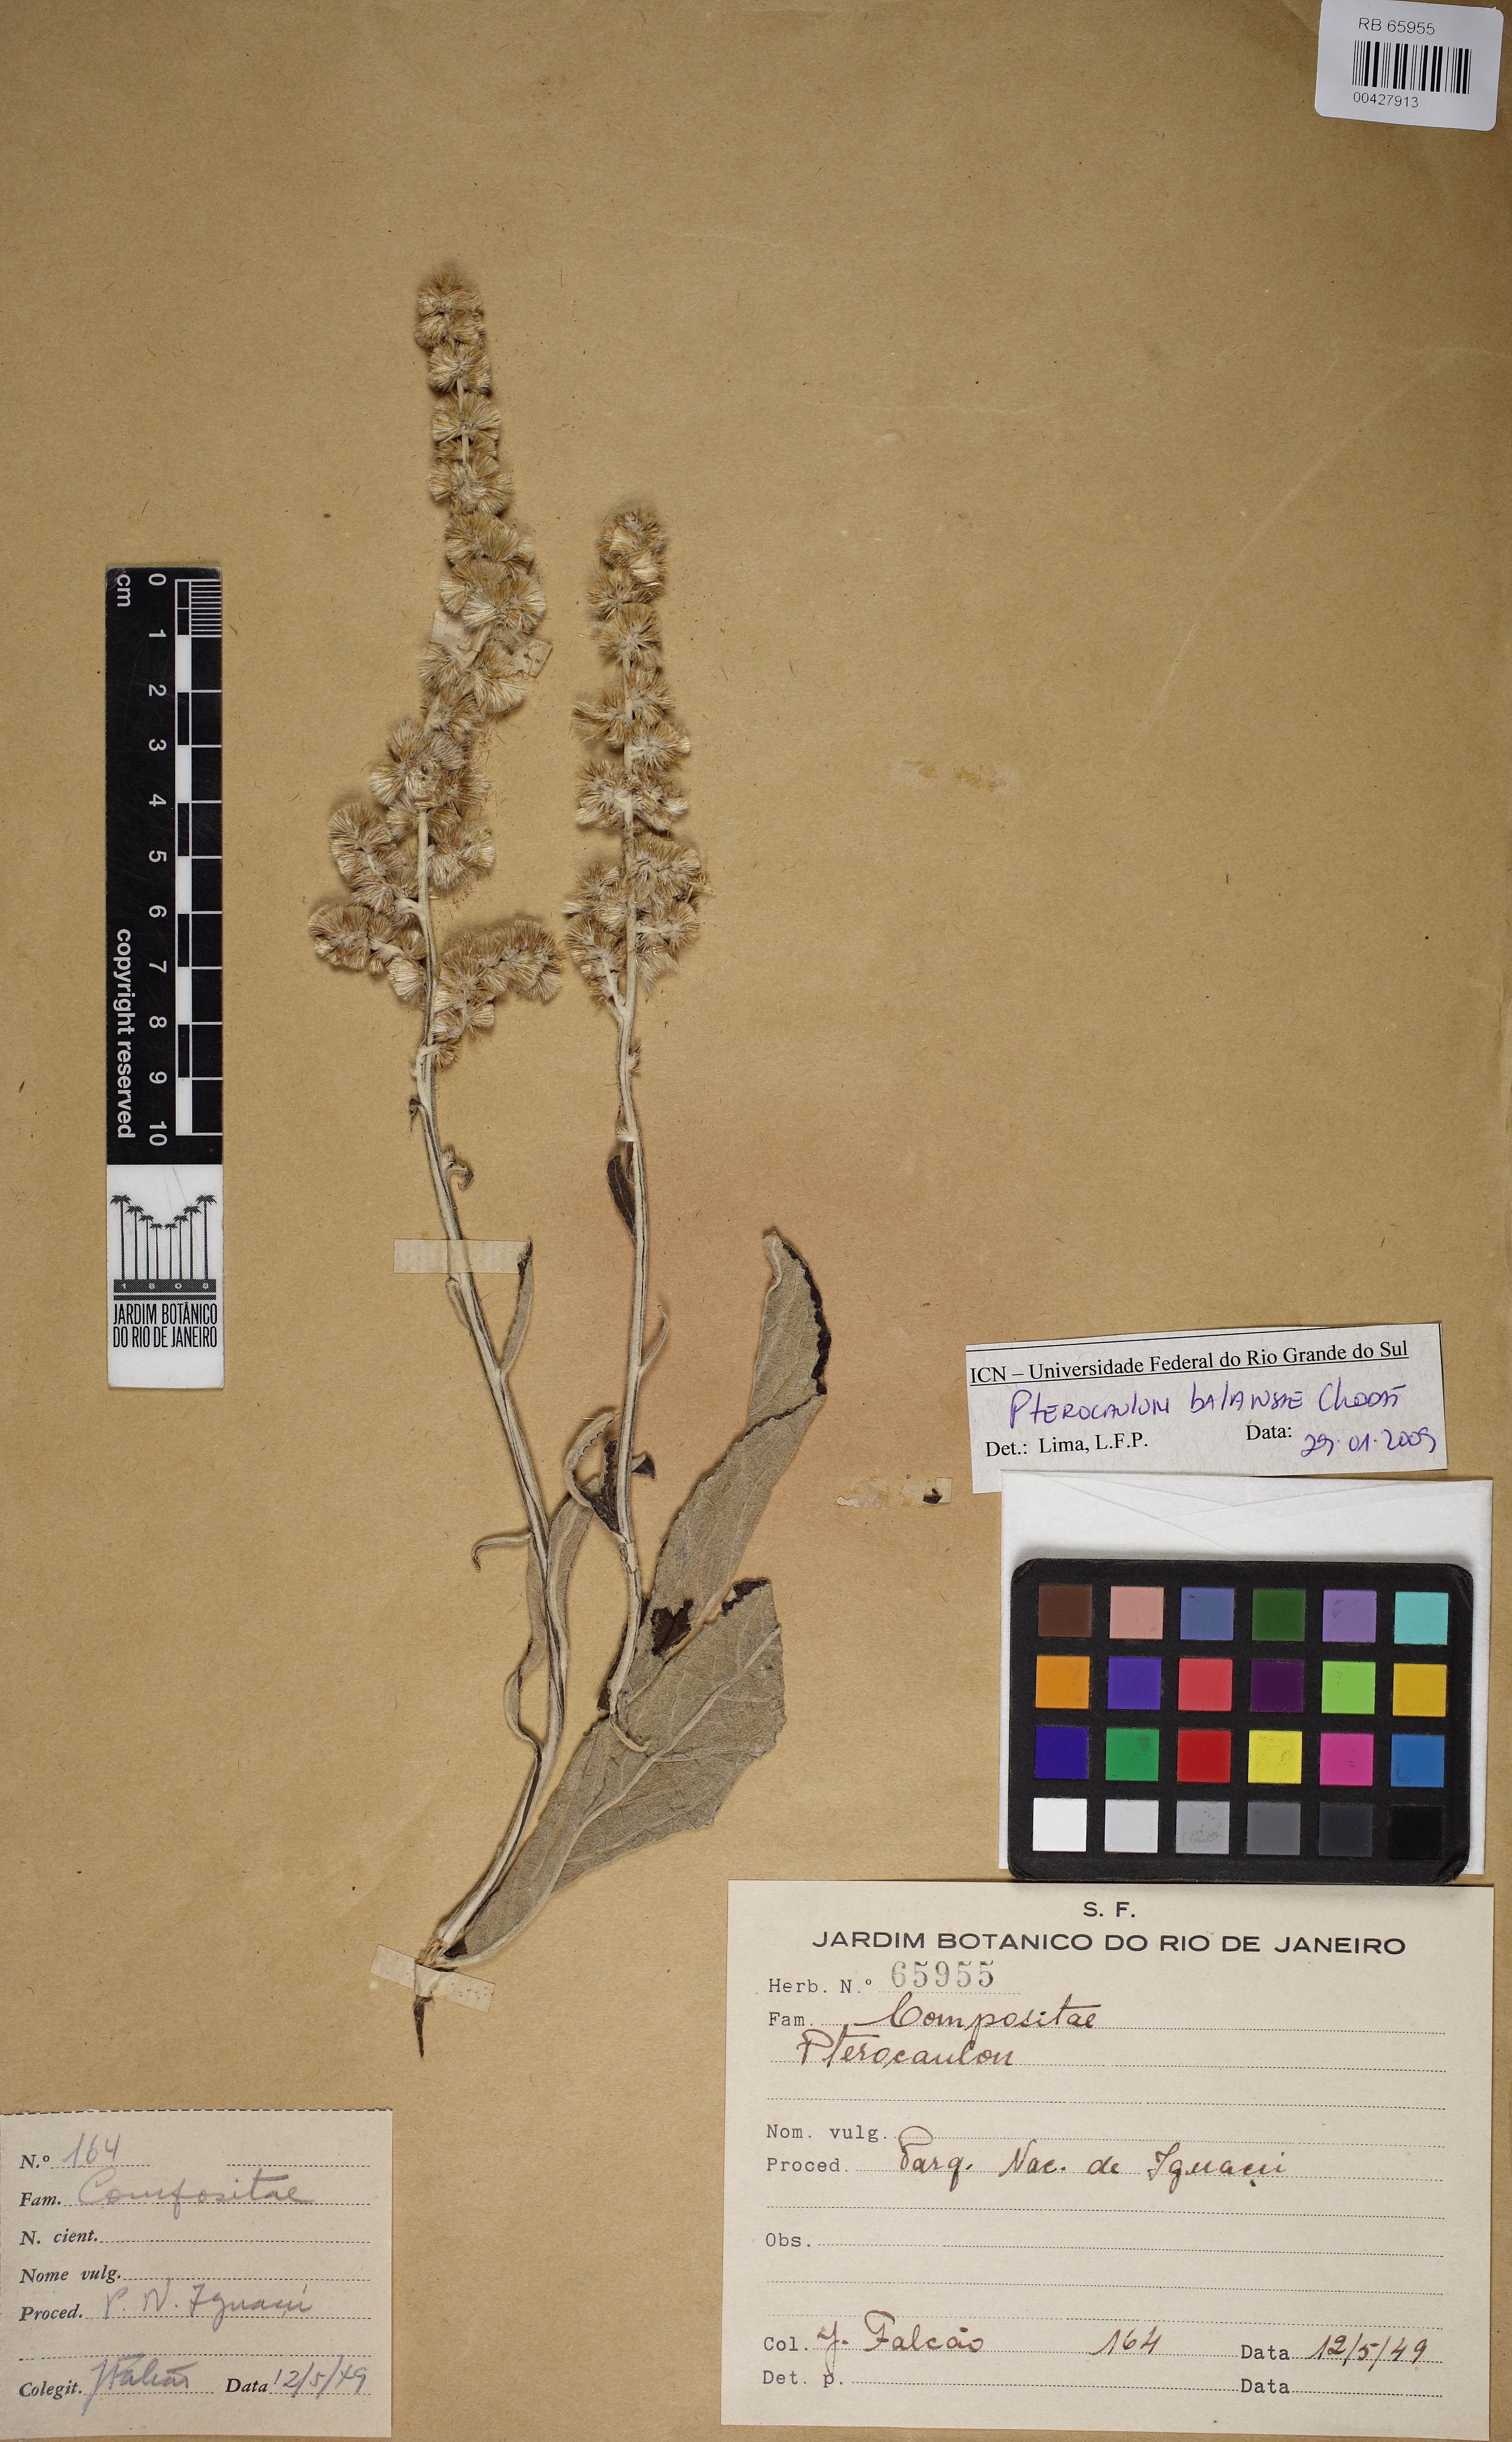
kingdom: Plantae
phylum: Tracheophyta
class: Magnoliopsida
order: Asterales
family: Asteraceae
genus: Pterocaulon
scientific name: Pterocaulon balansae
